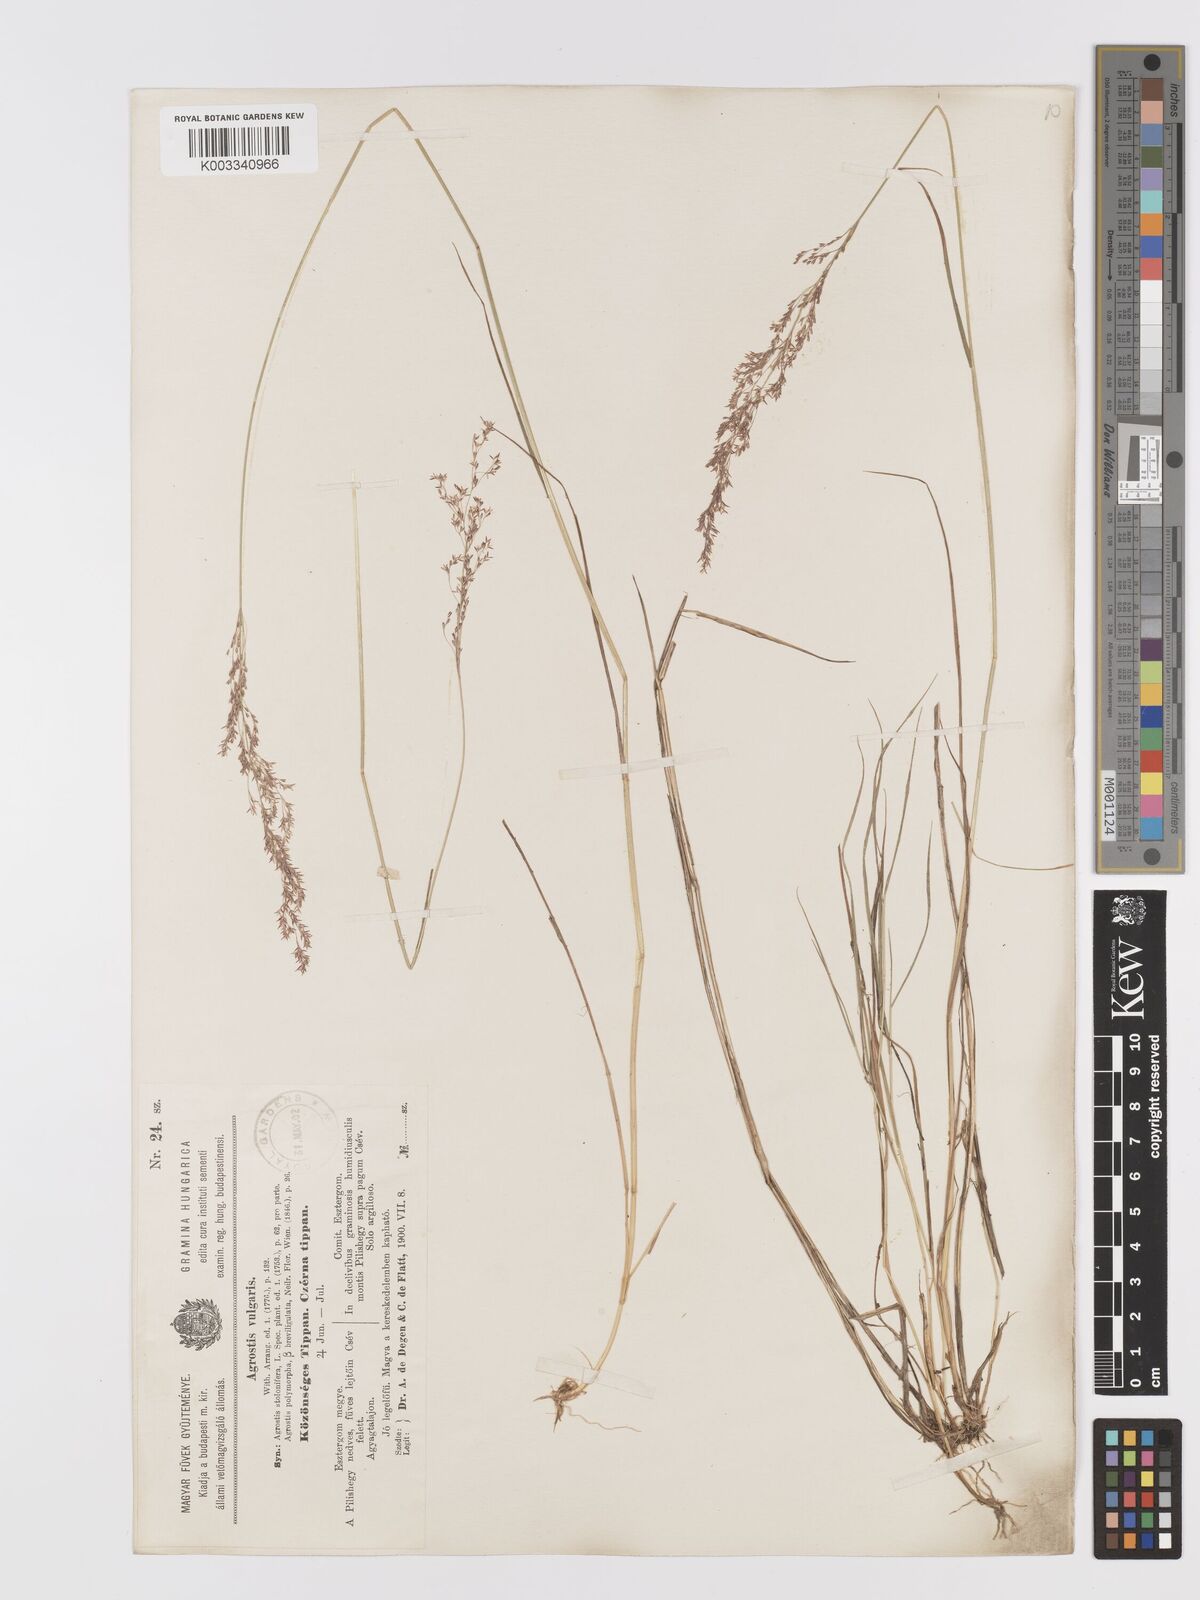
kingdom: Plantae
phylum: Tracheophyta
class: Liliopsida
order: Poales
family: Poaceae
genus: Agrostis
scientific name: Agrostis capillaris
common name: Colonial bentgrass
